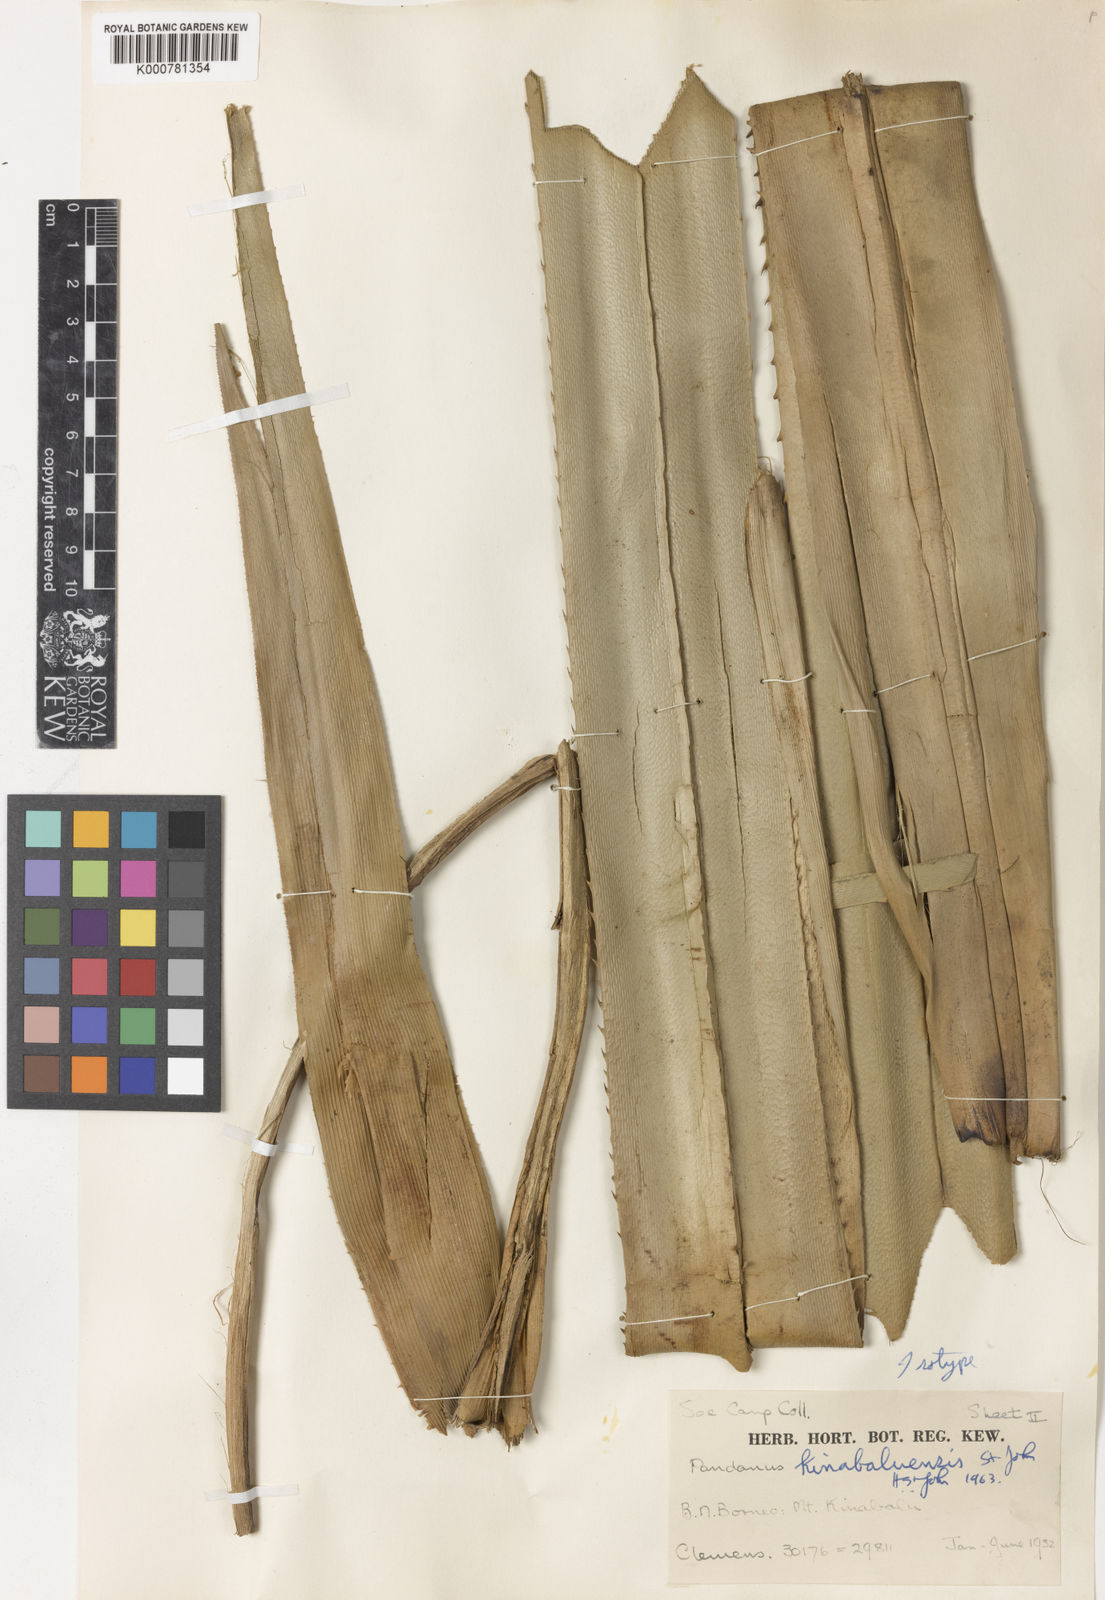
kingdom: Plantae
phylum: Tracheophyta
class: Liliopsida
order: Pandanales
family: Pandanaceae
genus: Pandanus
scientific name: Pandanus kinabaluensis
